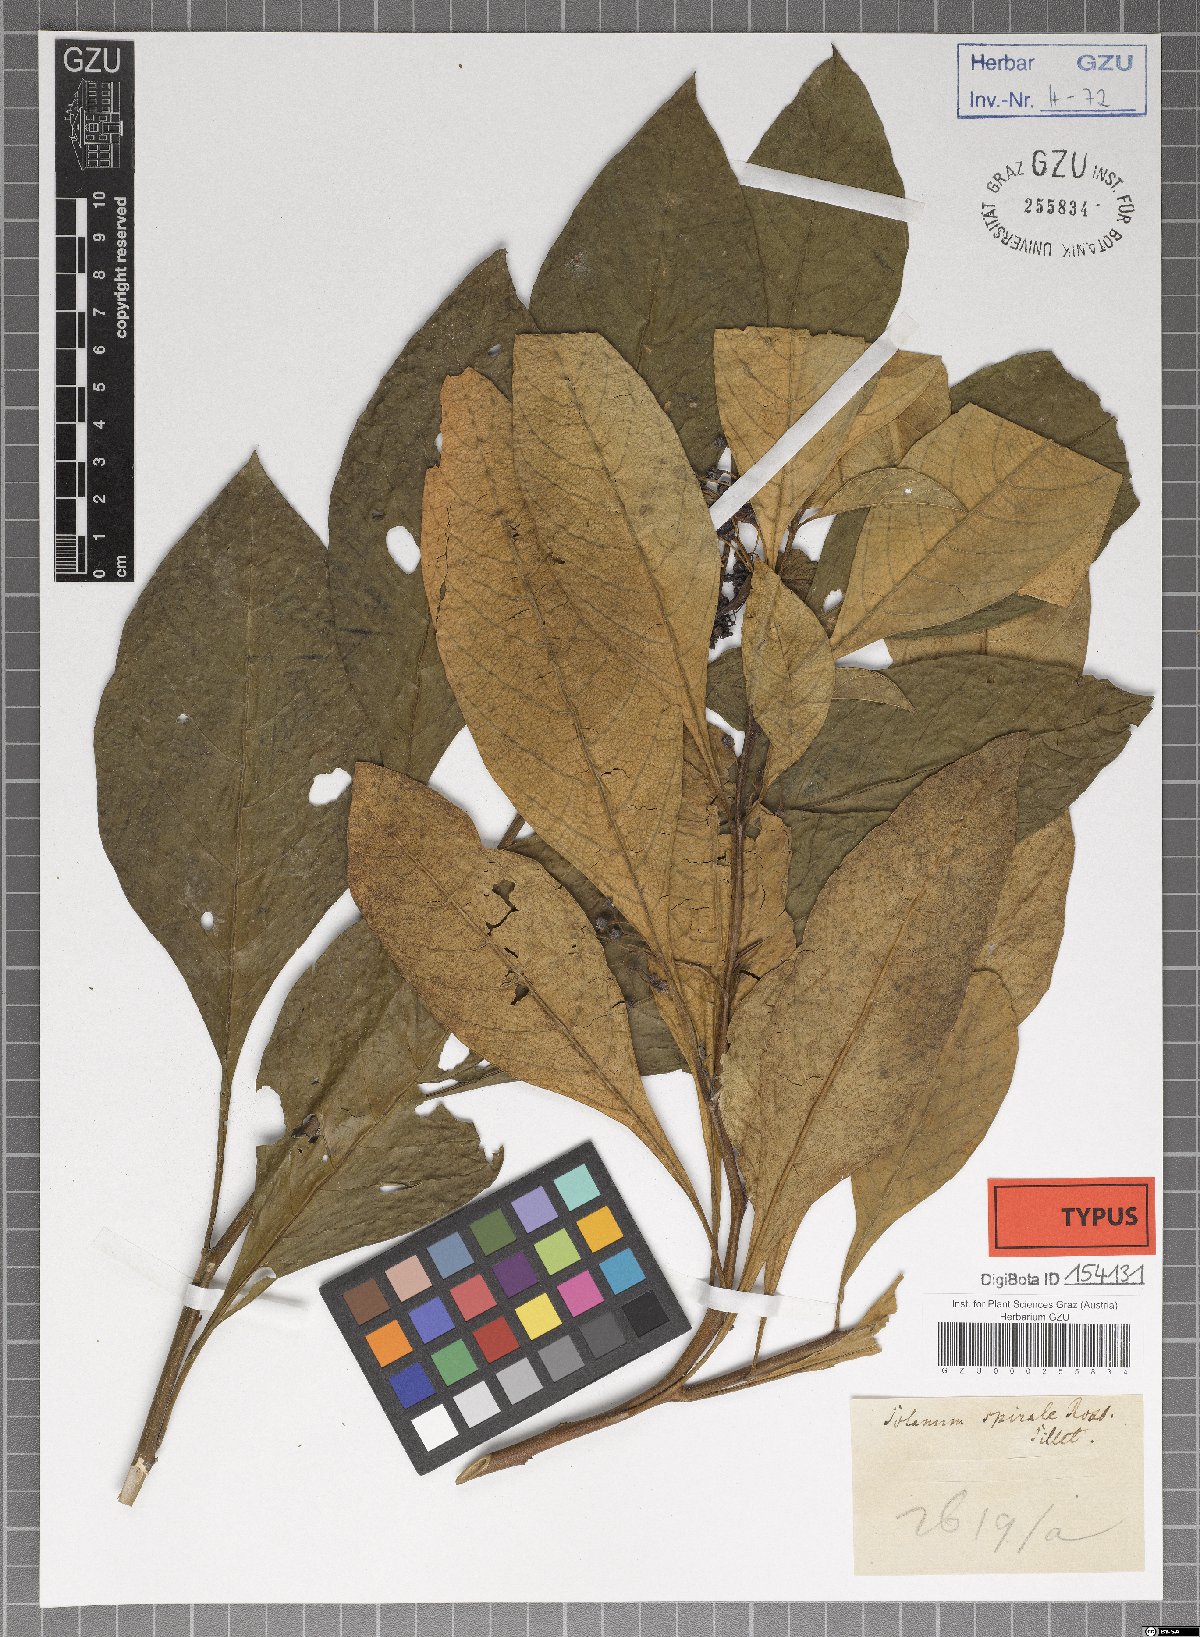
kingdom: Plantae
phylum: Tracheophyta
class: Magnoliopsida
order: Solanales
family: Solanaceae
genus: Solanum
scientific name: Solanum spirale
